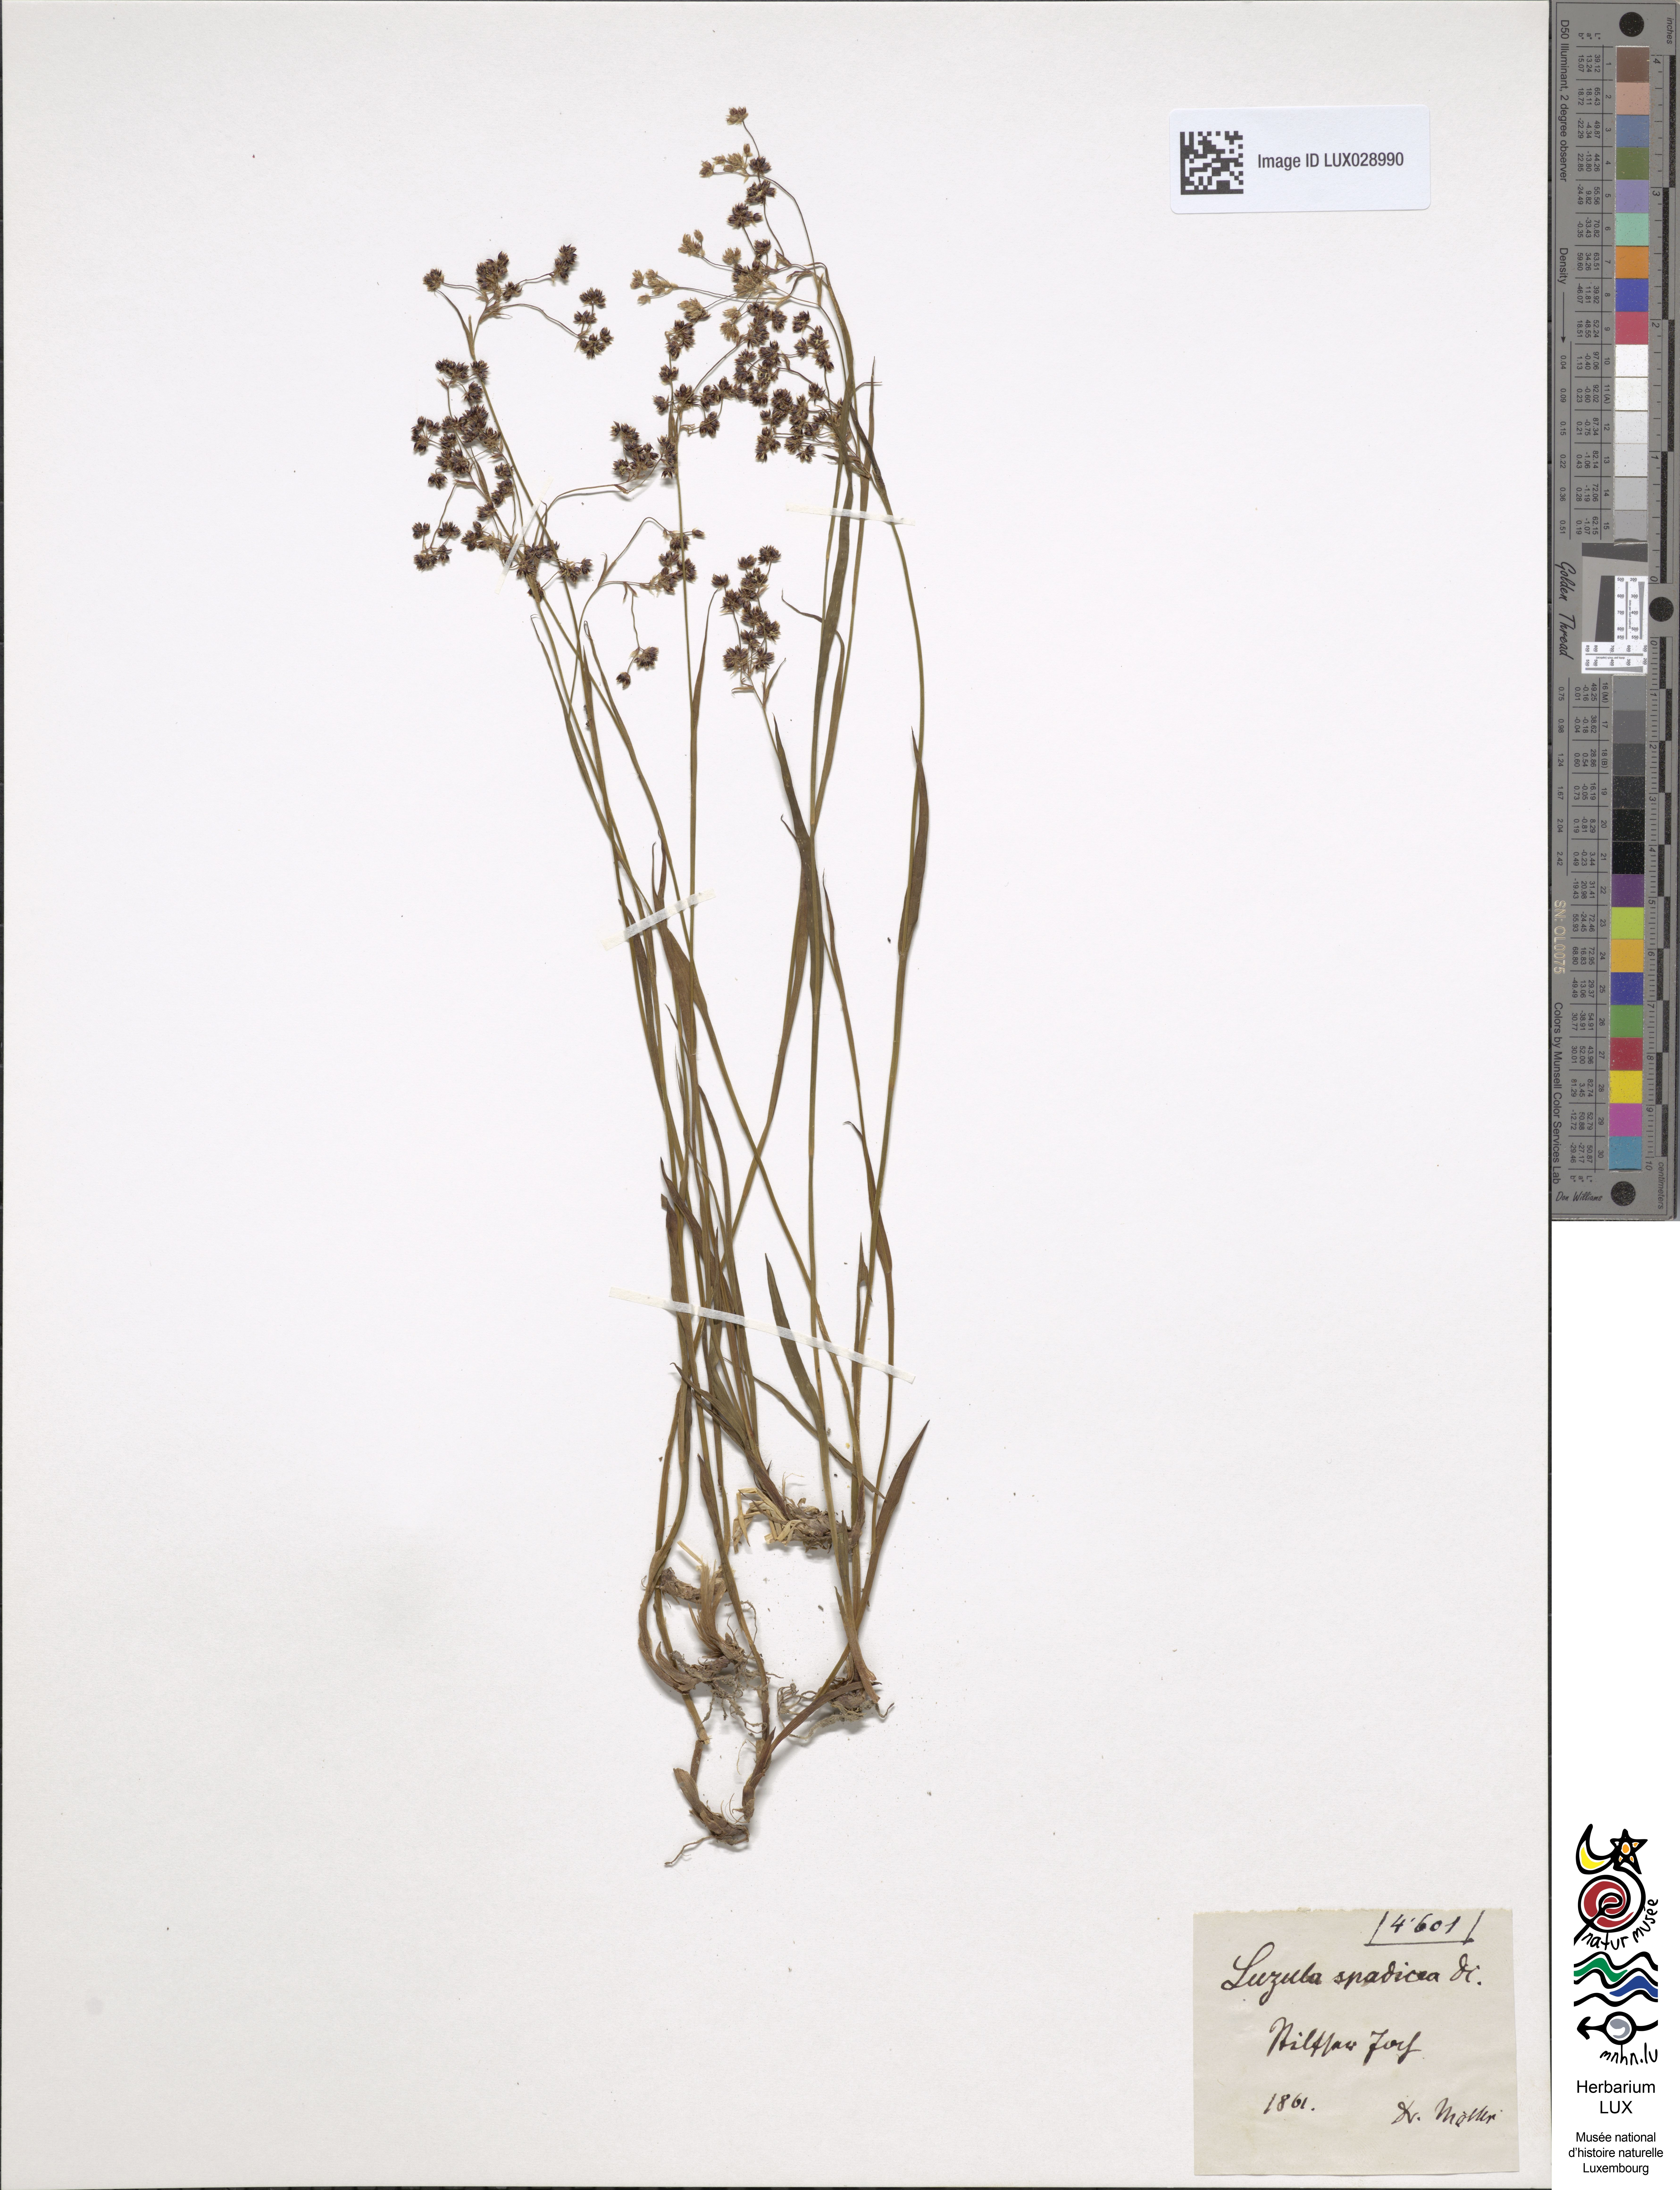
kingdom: Plantae
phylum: Tracheophyta
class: Liliopsida
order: Poales
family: Juncaceae
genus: Luzula
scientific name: Luzula alpinopilosa
